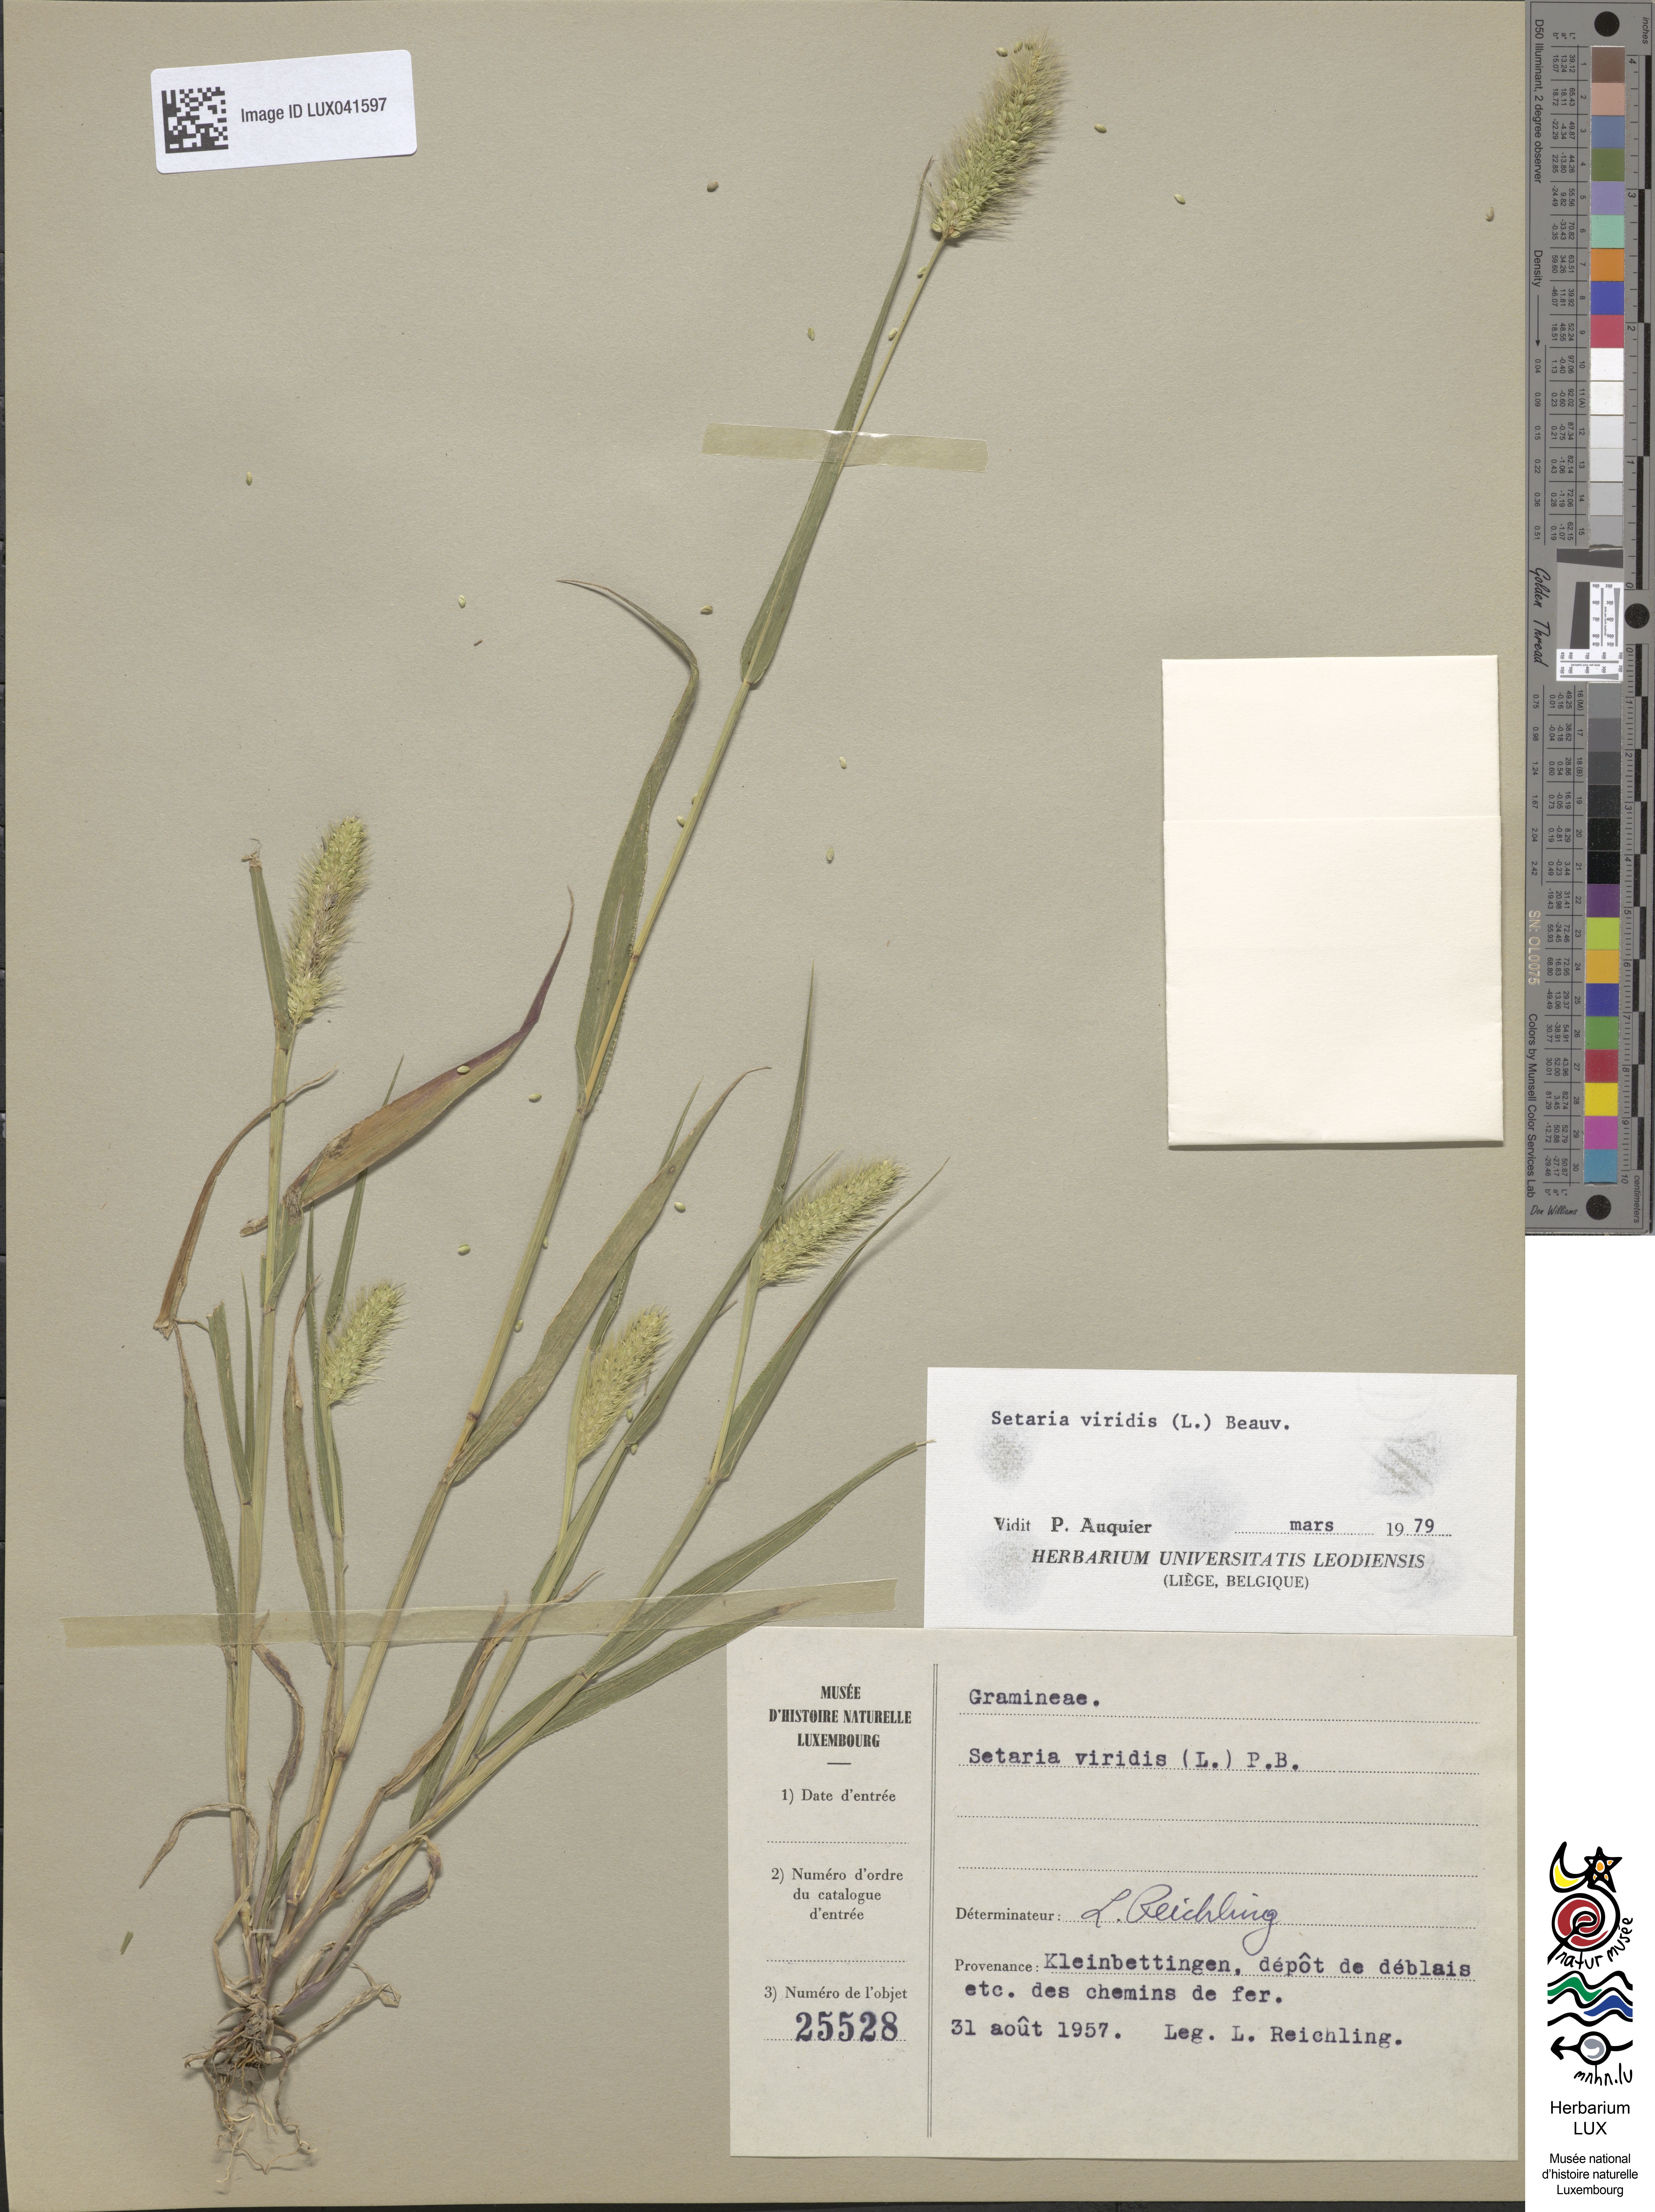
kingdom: Plantae
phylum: Tracheophyta
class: Liliopsida
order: Poales
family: Poaceae
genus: Setaria
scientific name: Setaria viridis
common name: Green bristlegrass
